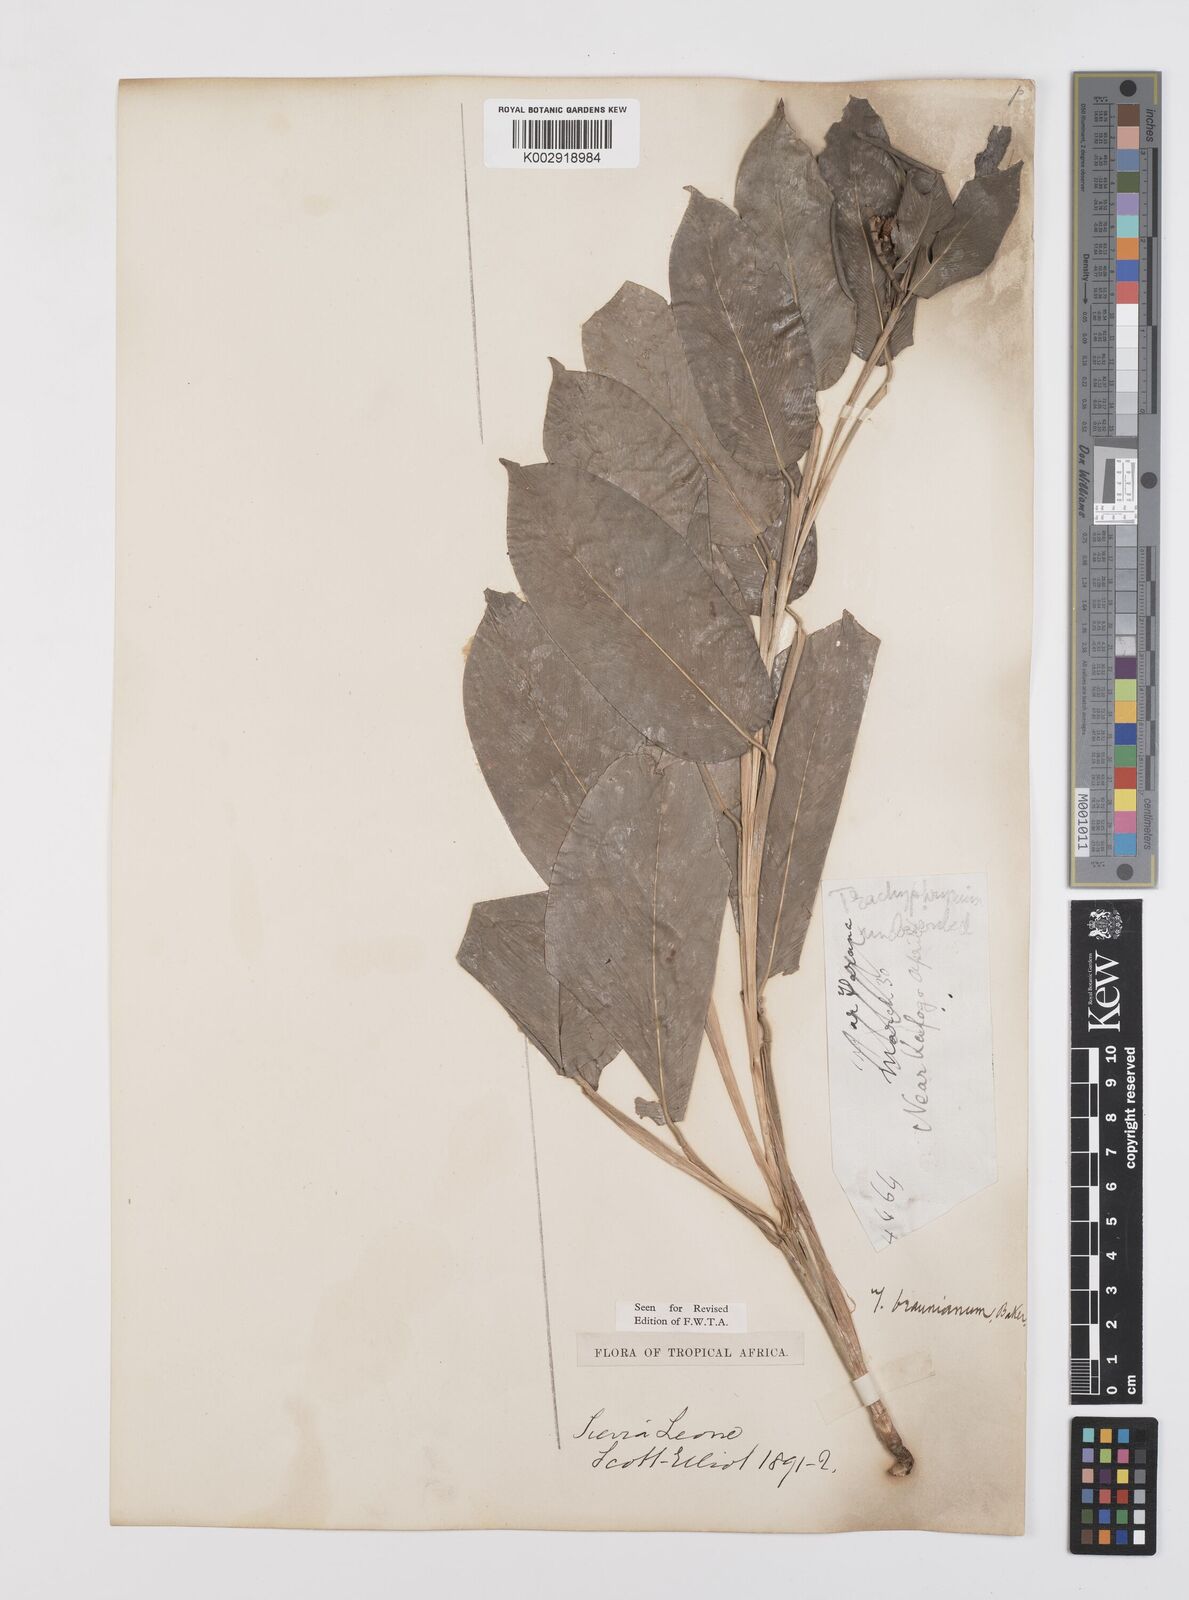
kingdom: Plantae
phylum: Tracheophyta
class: Liliopsida
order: Zingiberales
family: Marantaceae
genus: Trachyphrynium
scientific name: Trachyphrynium braunianum
